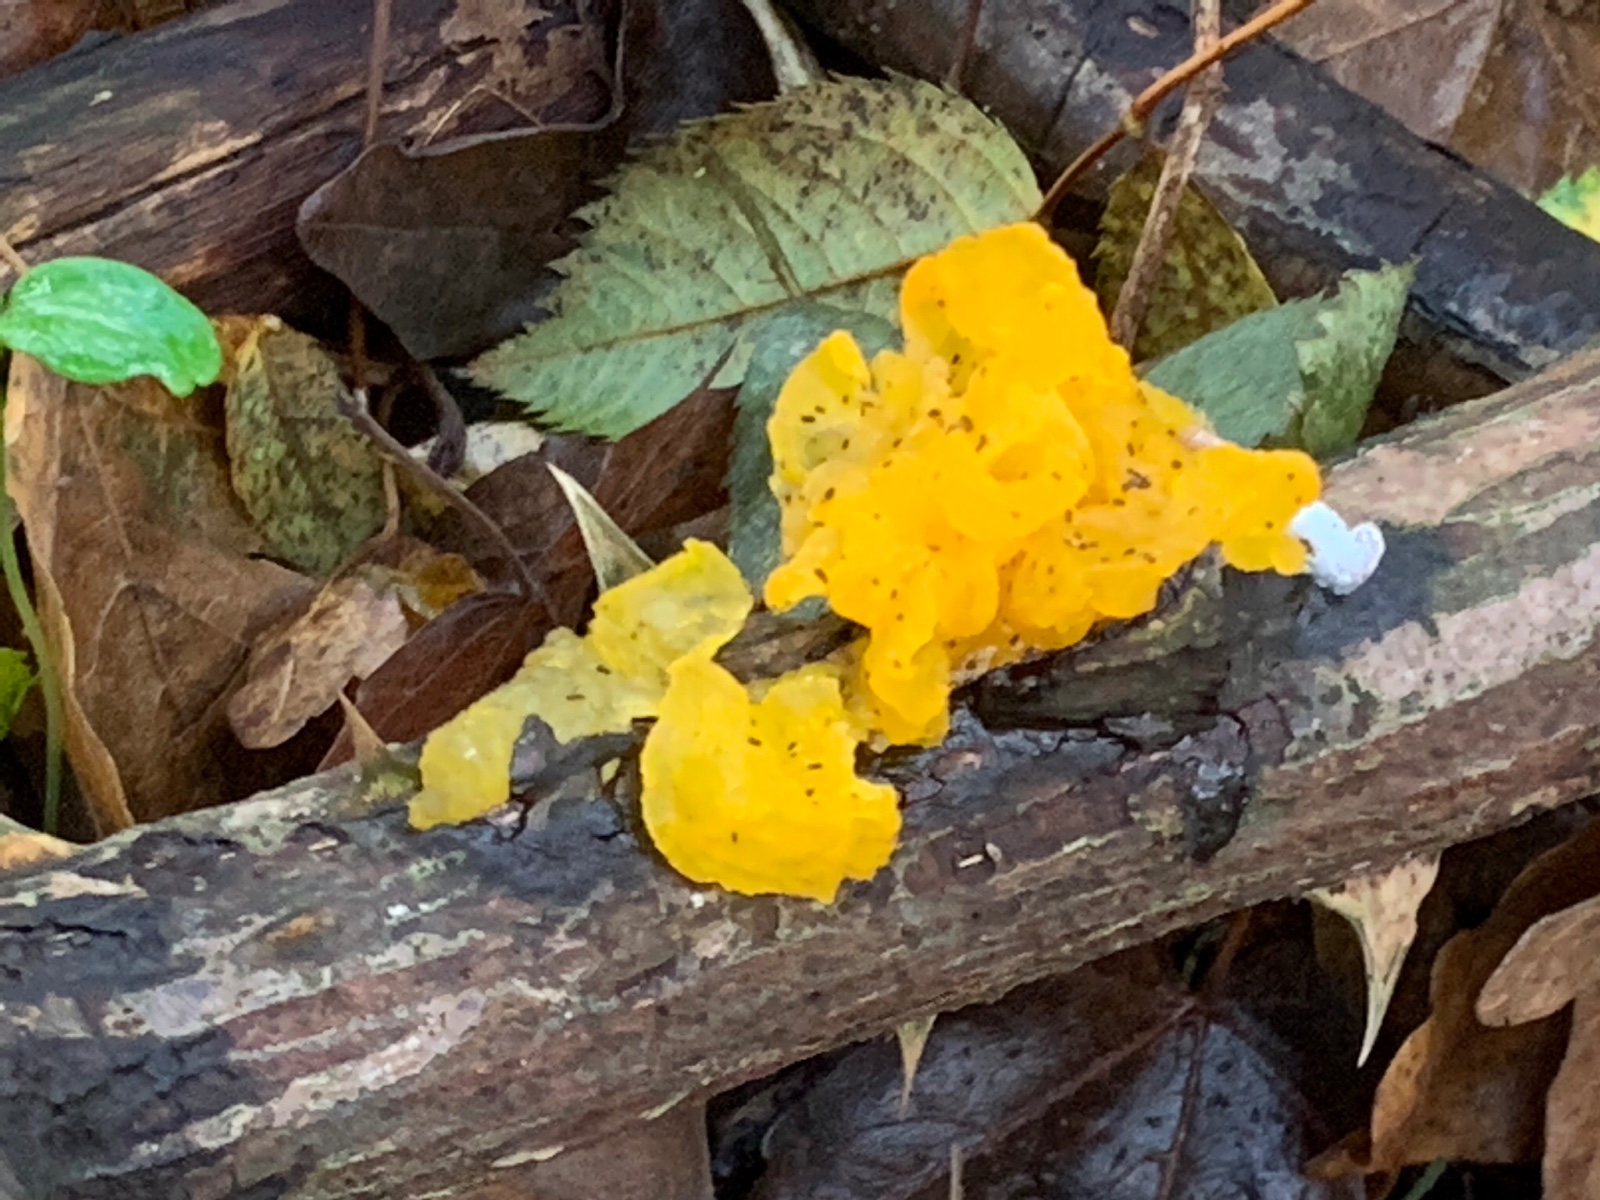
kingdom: Fungi
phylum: Basidiomycota
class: Tremellomycetes
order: Tremellales
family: Tremellaceae
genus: Tremella
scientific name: Tremella mesenterica
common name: gul bævresvamp
